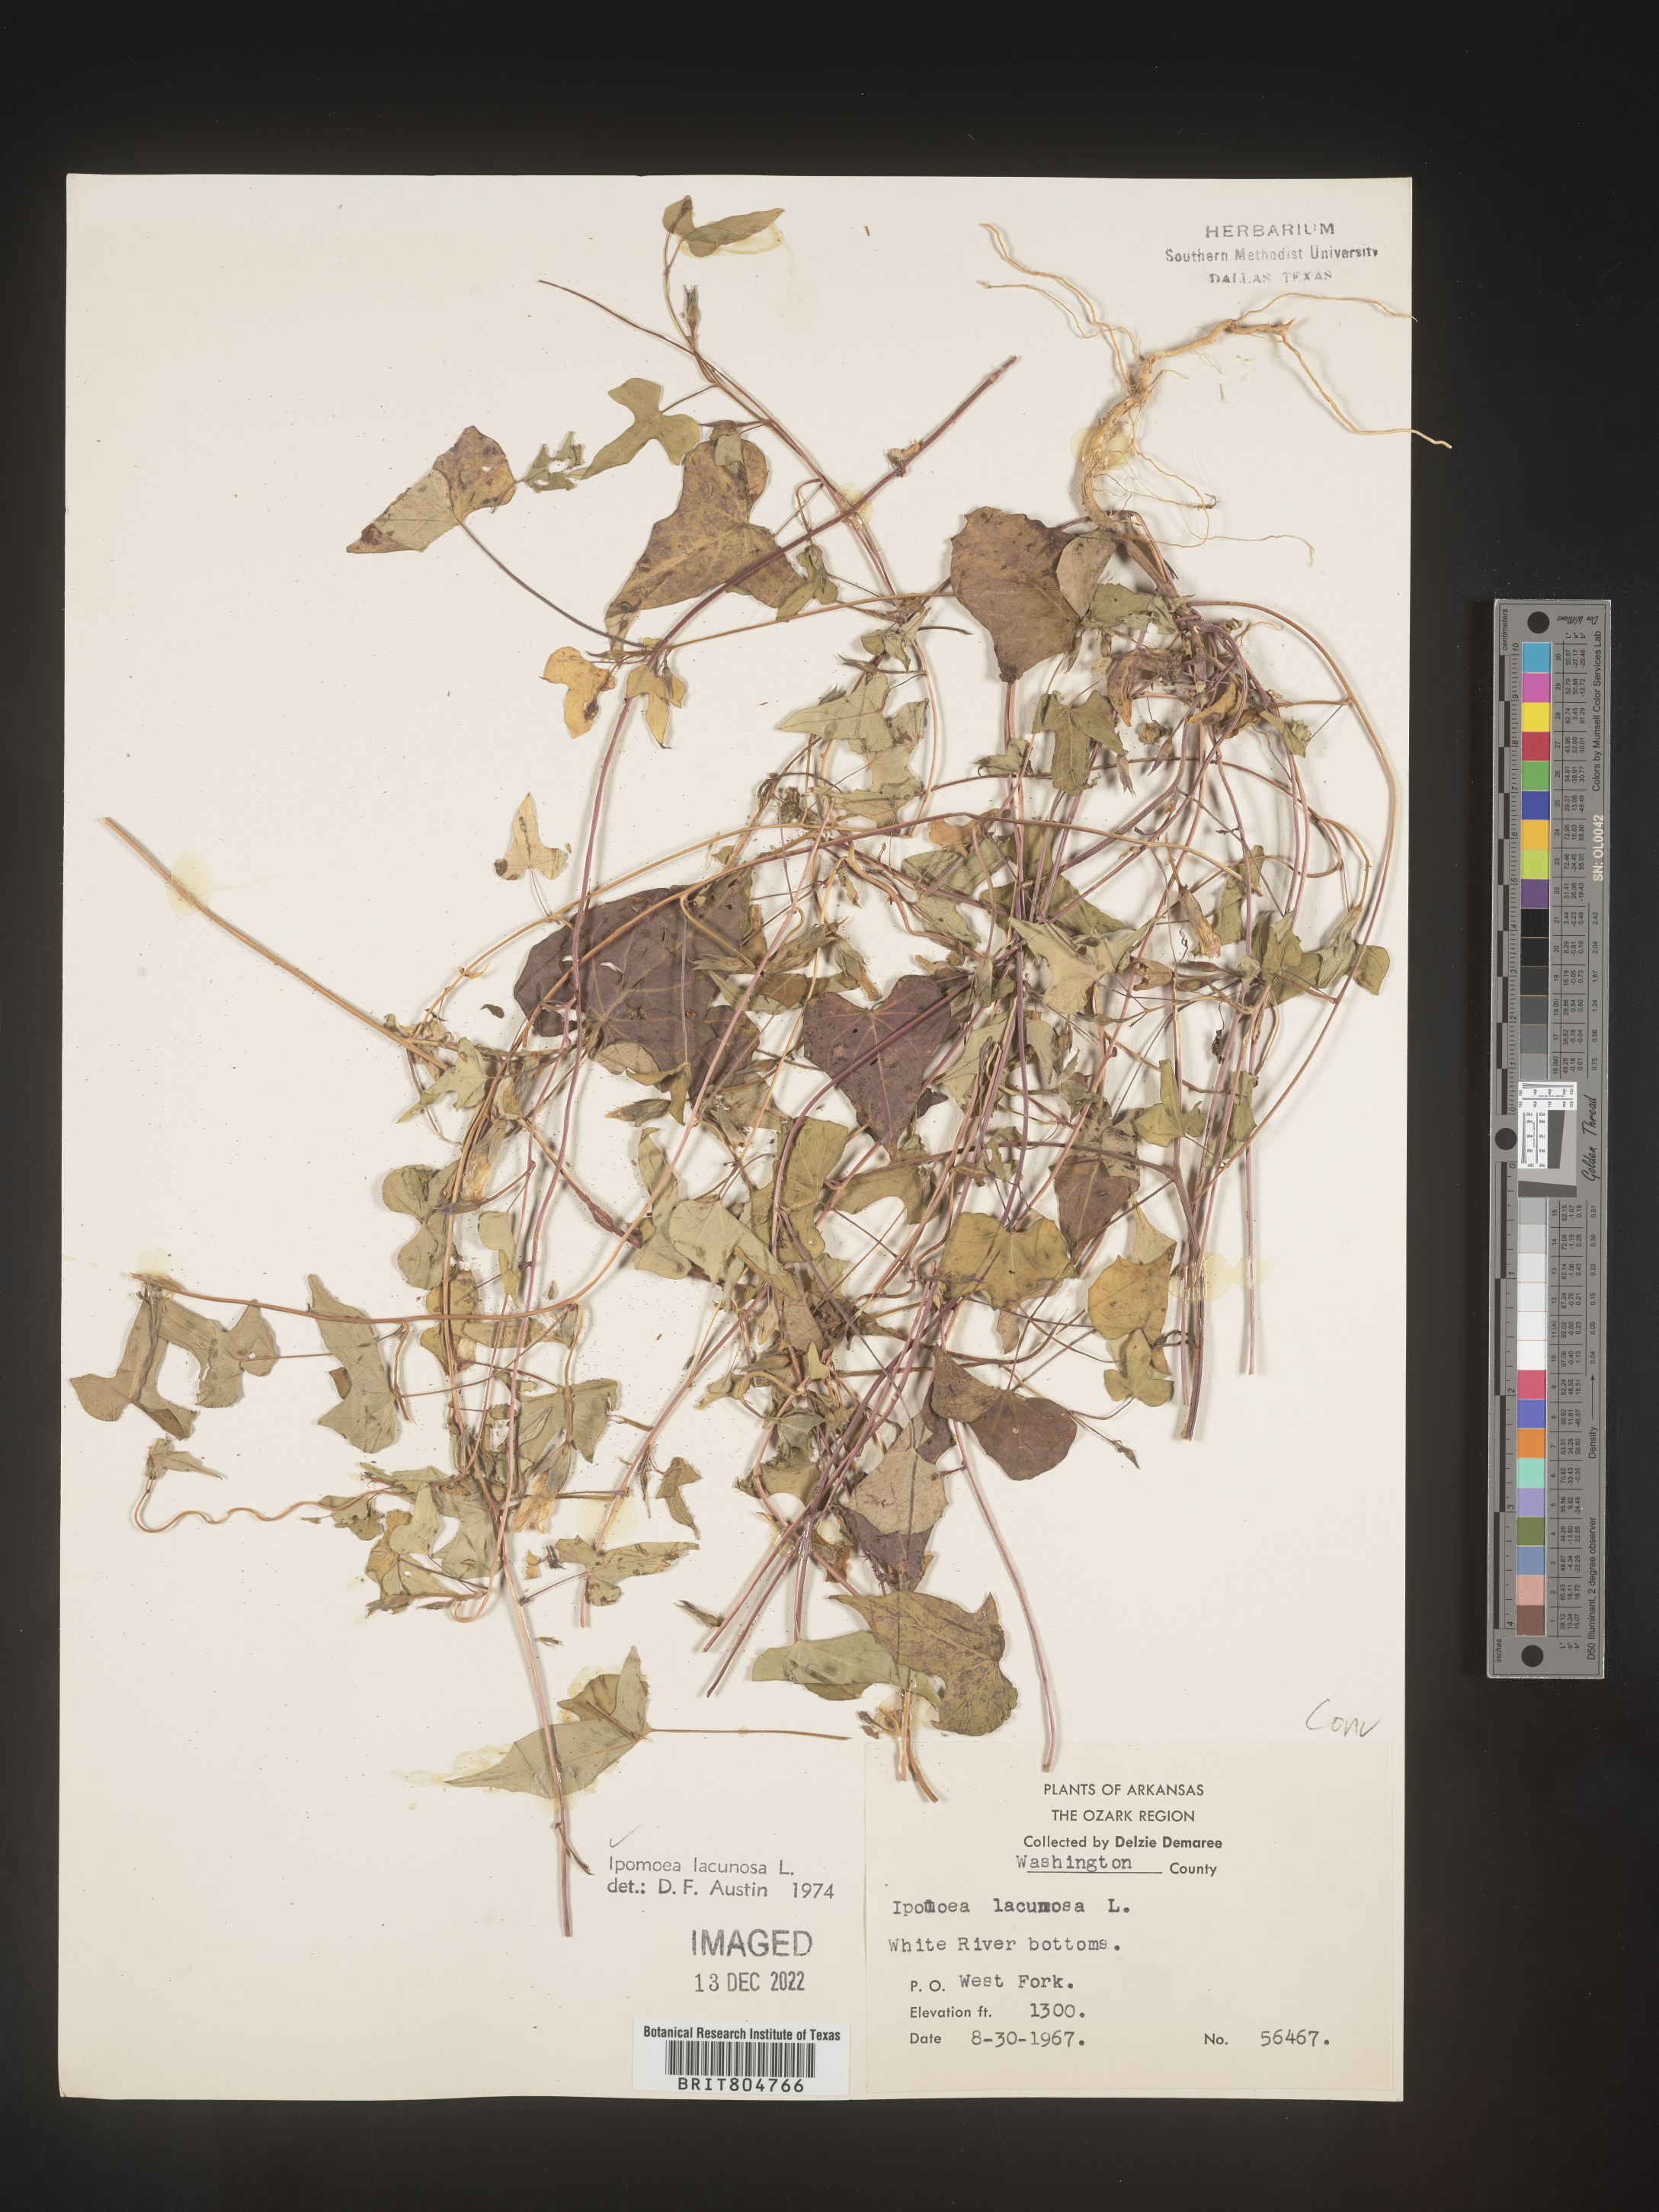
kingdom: Plantae
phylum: Tracheophyta
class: Magnoliopsida
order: Solanales
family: Convolvulaceae
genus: Ipomoea
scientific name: Ipomoea lacunosa
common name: White morning-glory
